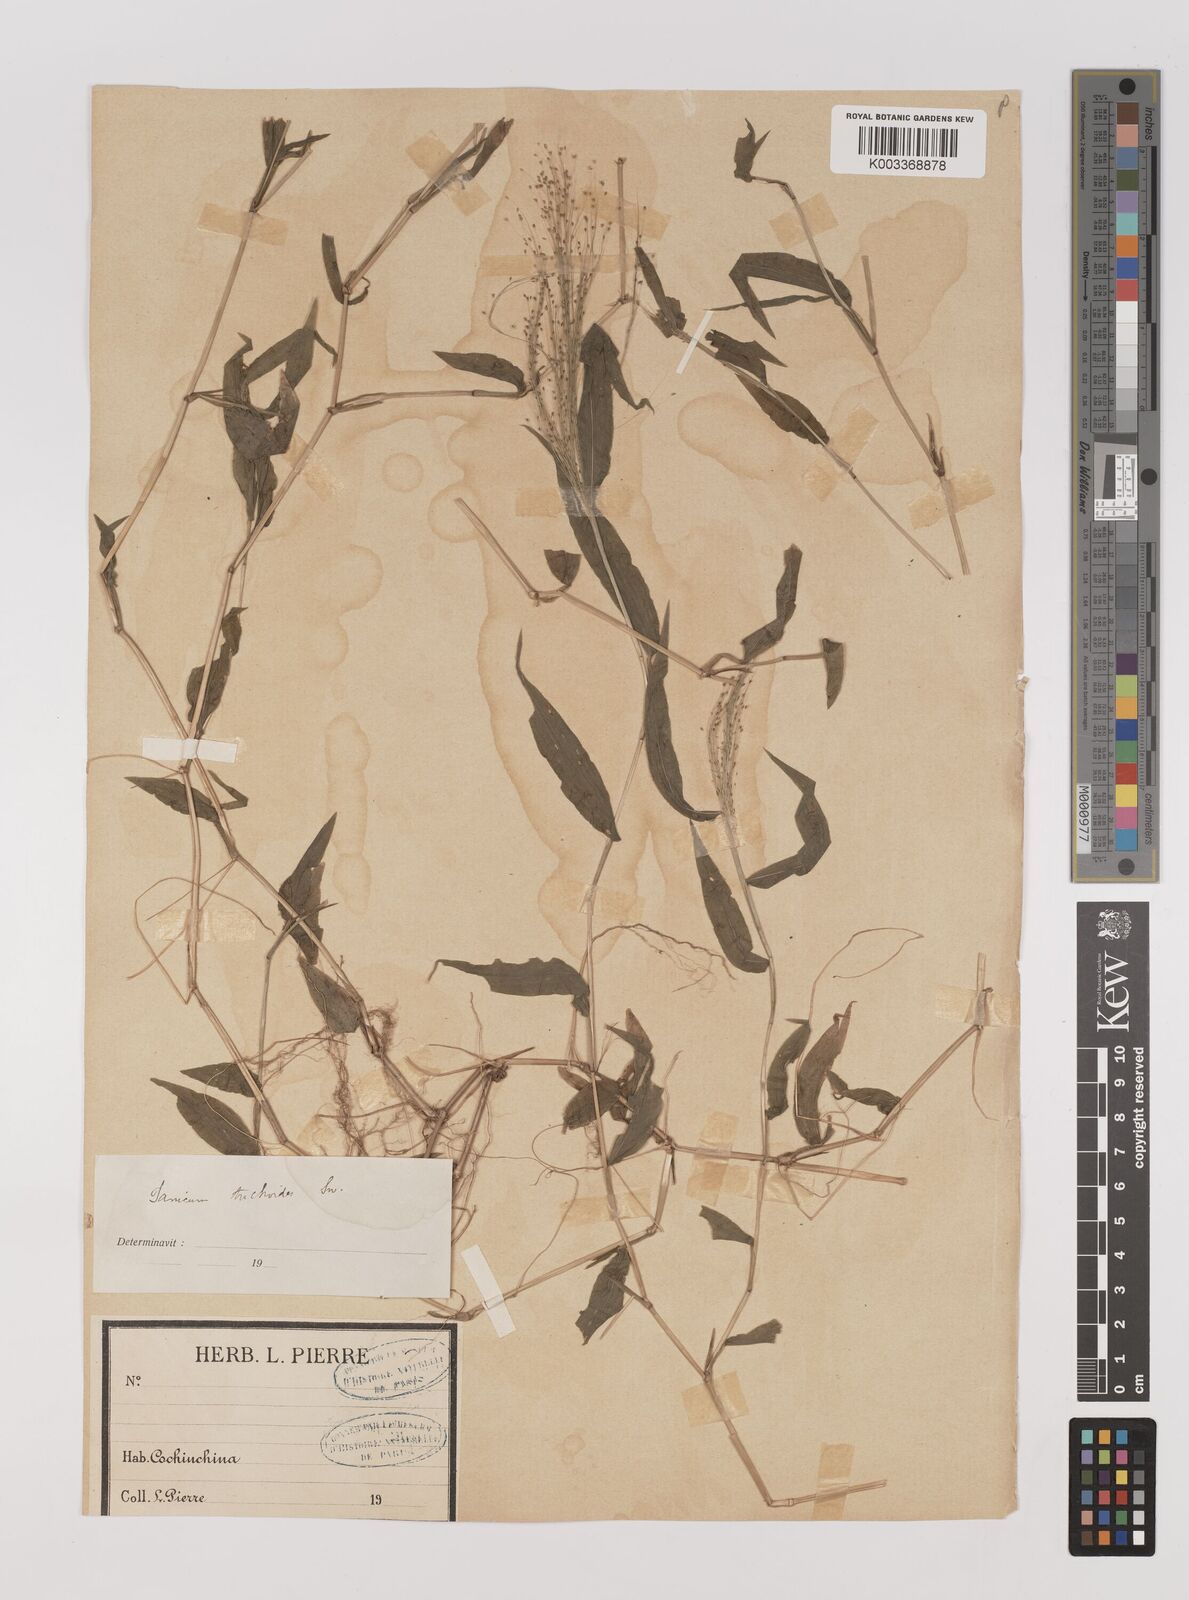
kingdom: Plantae
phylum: Tracheophyta
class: Liliopsida
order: Poales
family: Poaceae
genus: Panicum
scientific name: Panicum trichoides
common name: Tickle grass
